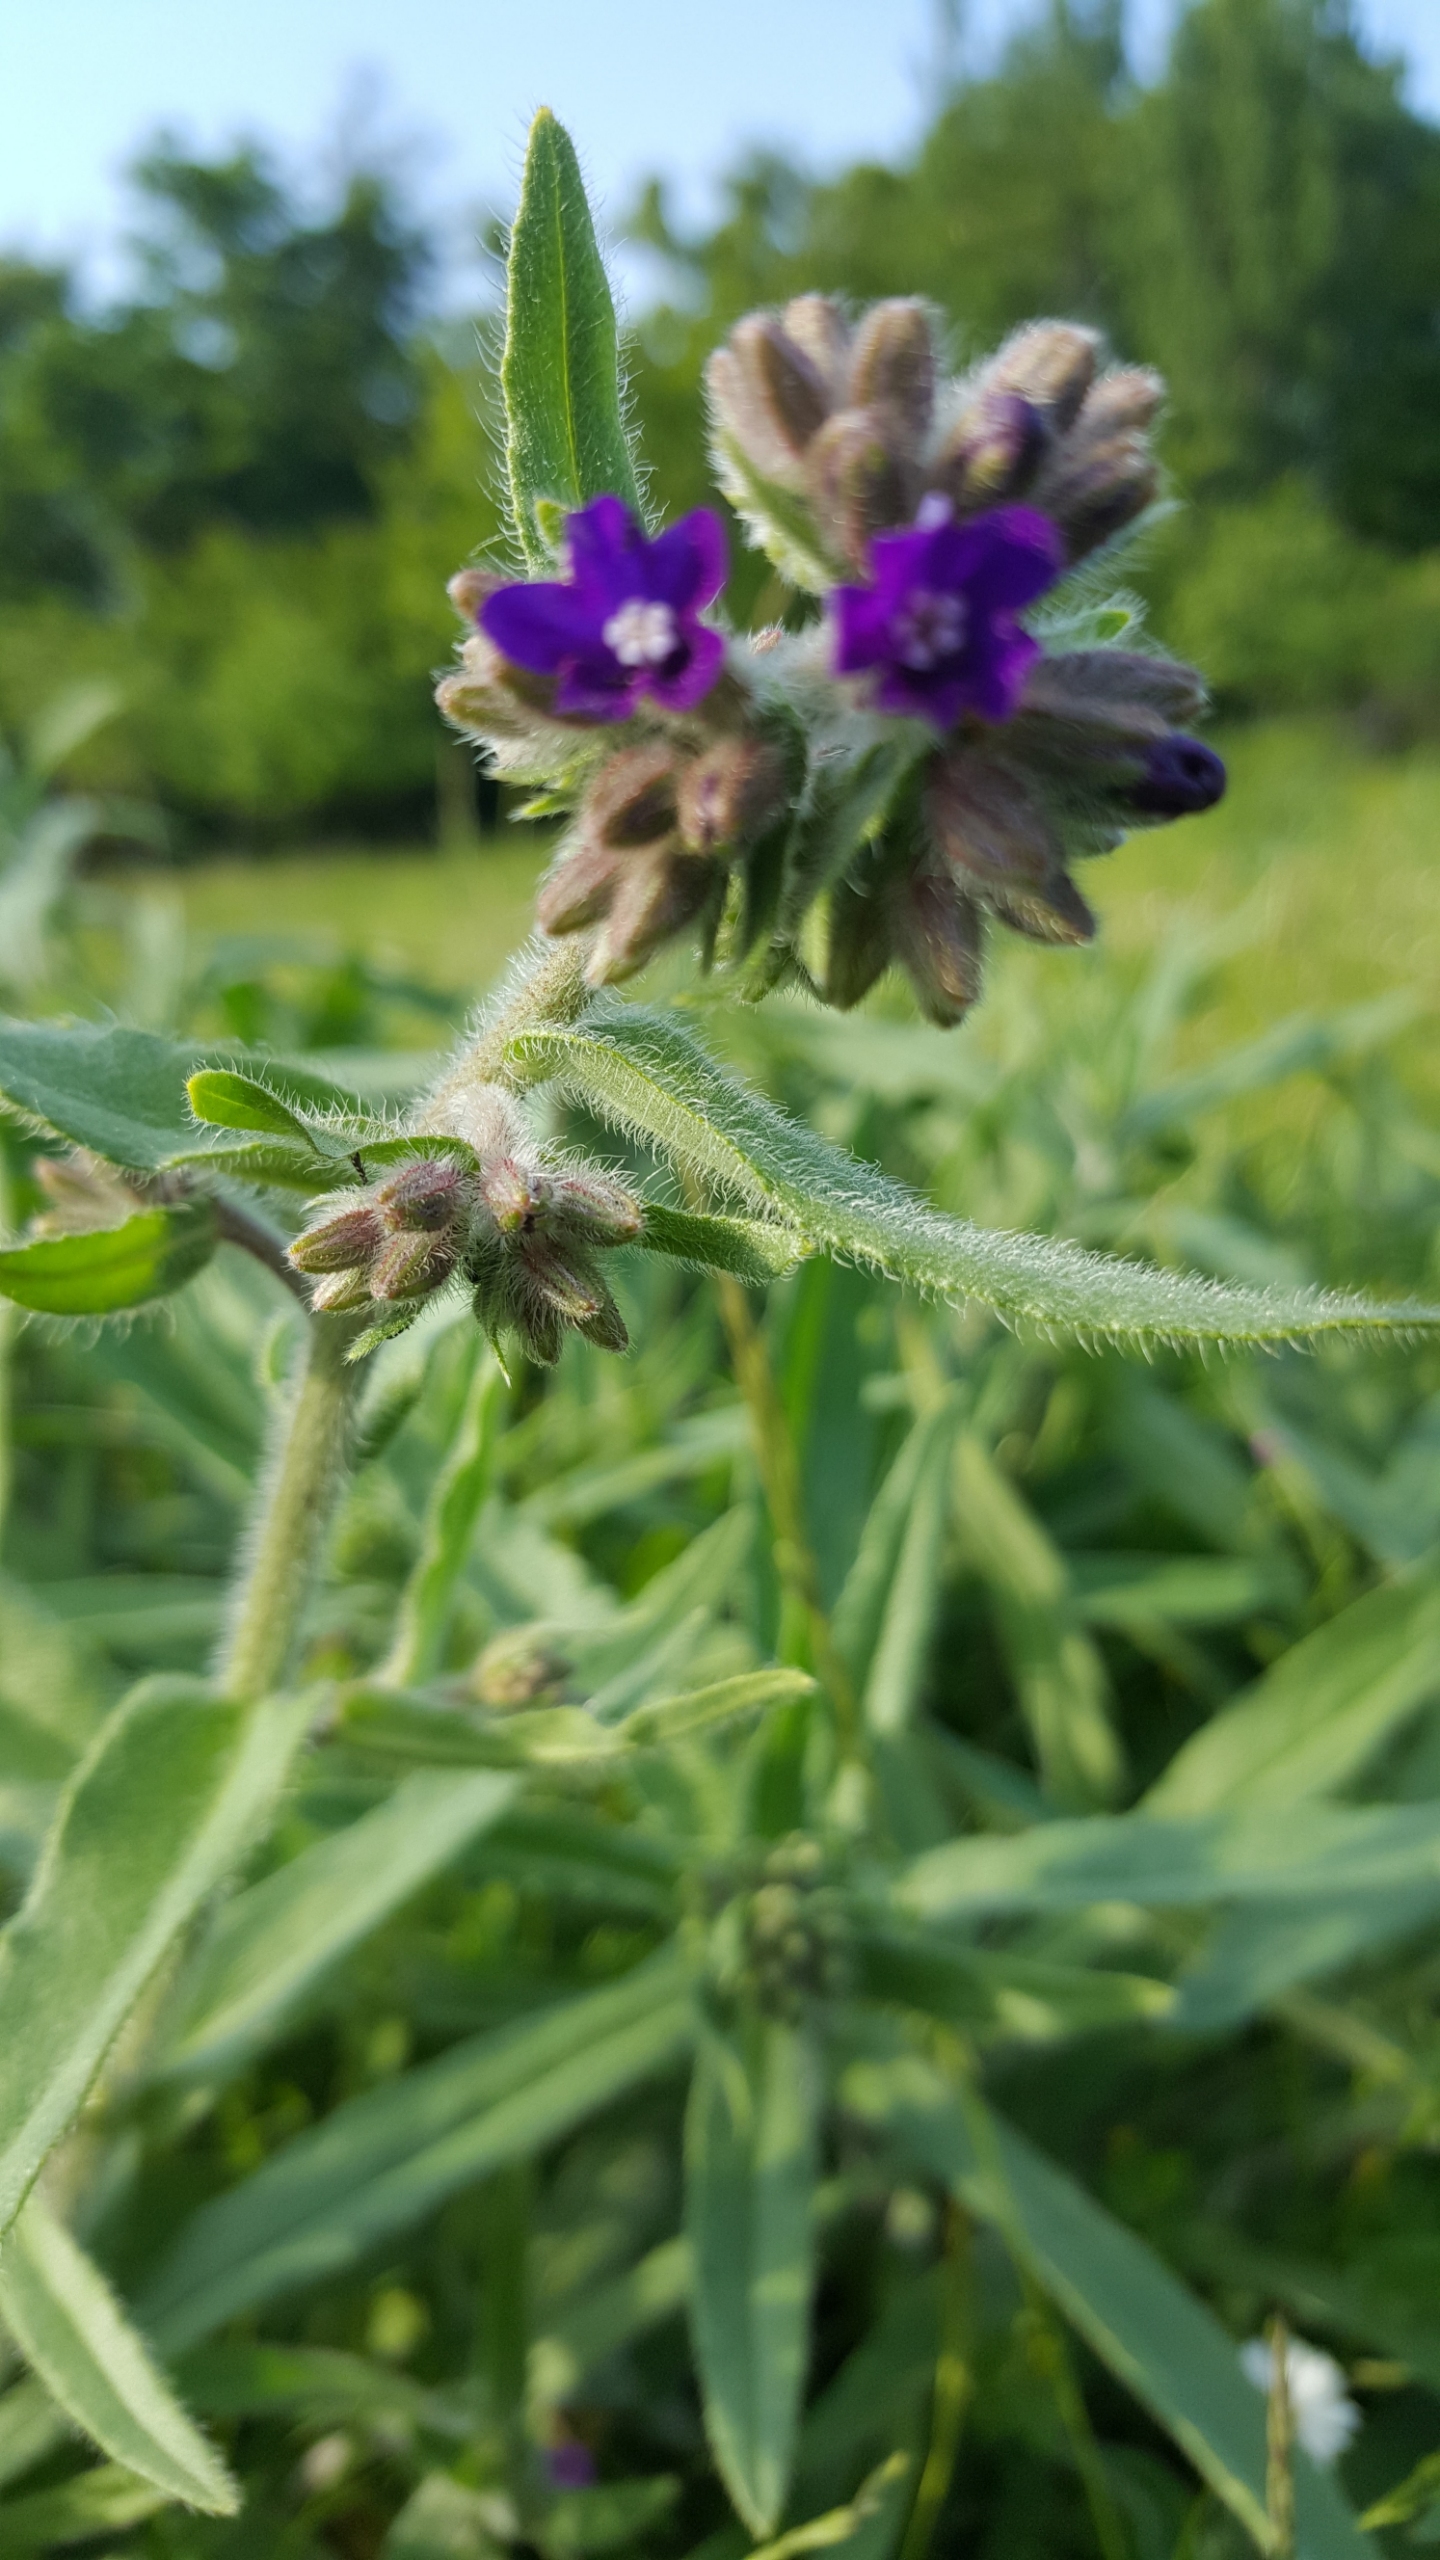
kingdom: Plantae
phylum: Tracheophyta
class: Magnoliopsida
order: Boraginales
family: Boraginaceae
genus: Anchusa
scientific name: Anchusa officinalis
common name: Læge-oksetunge
